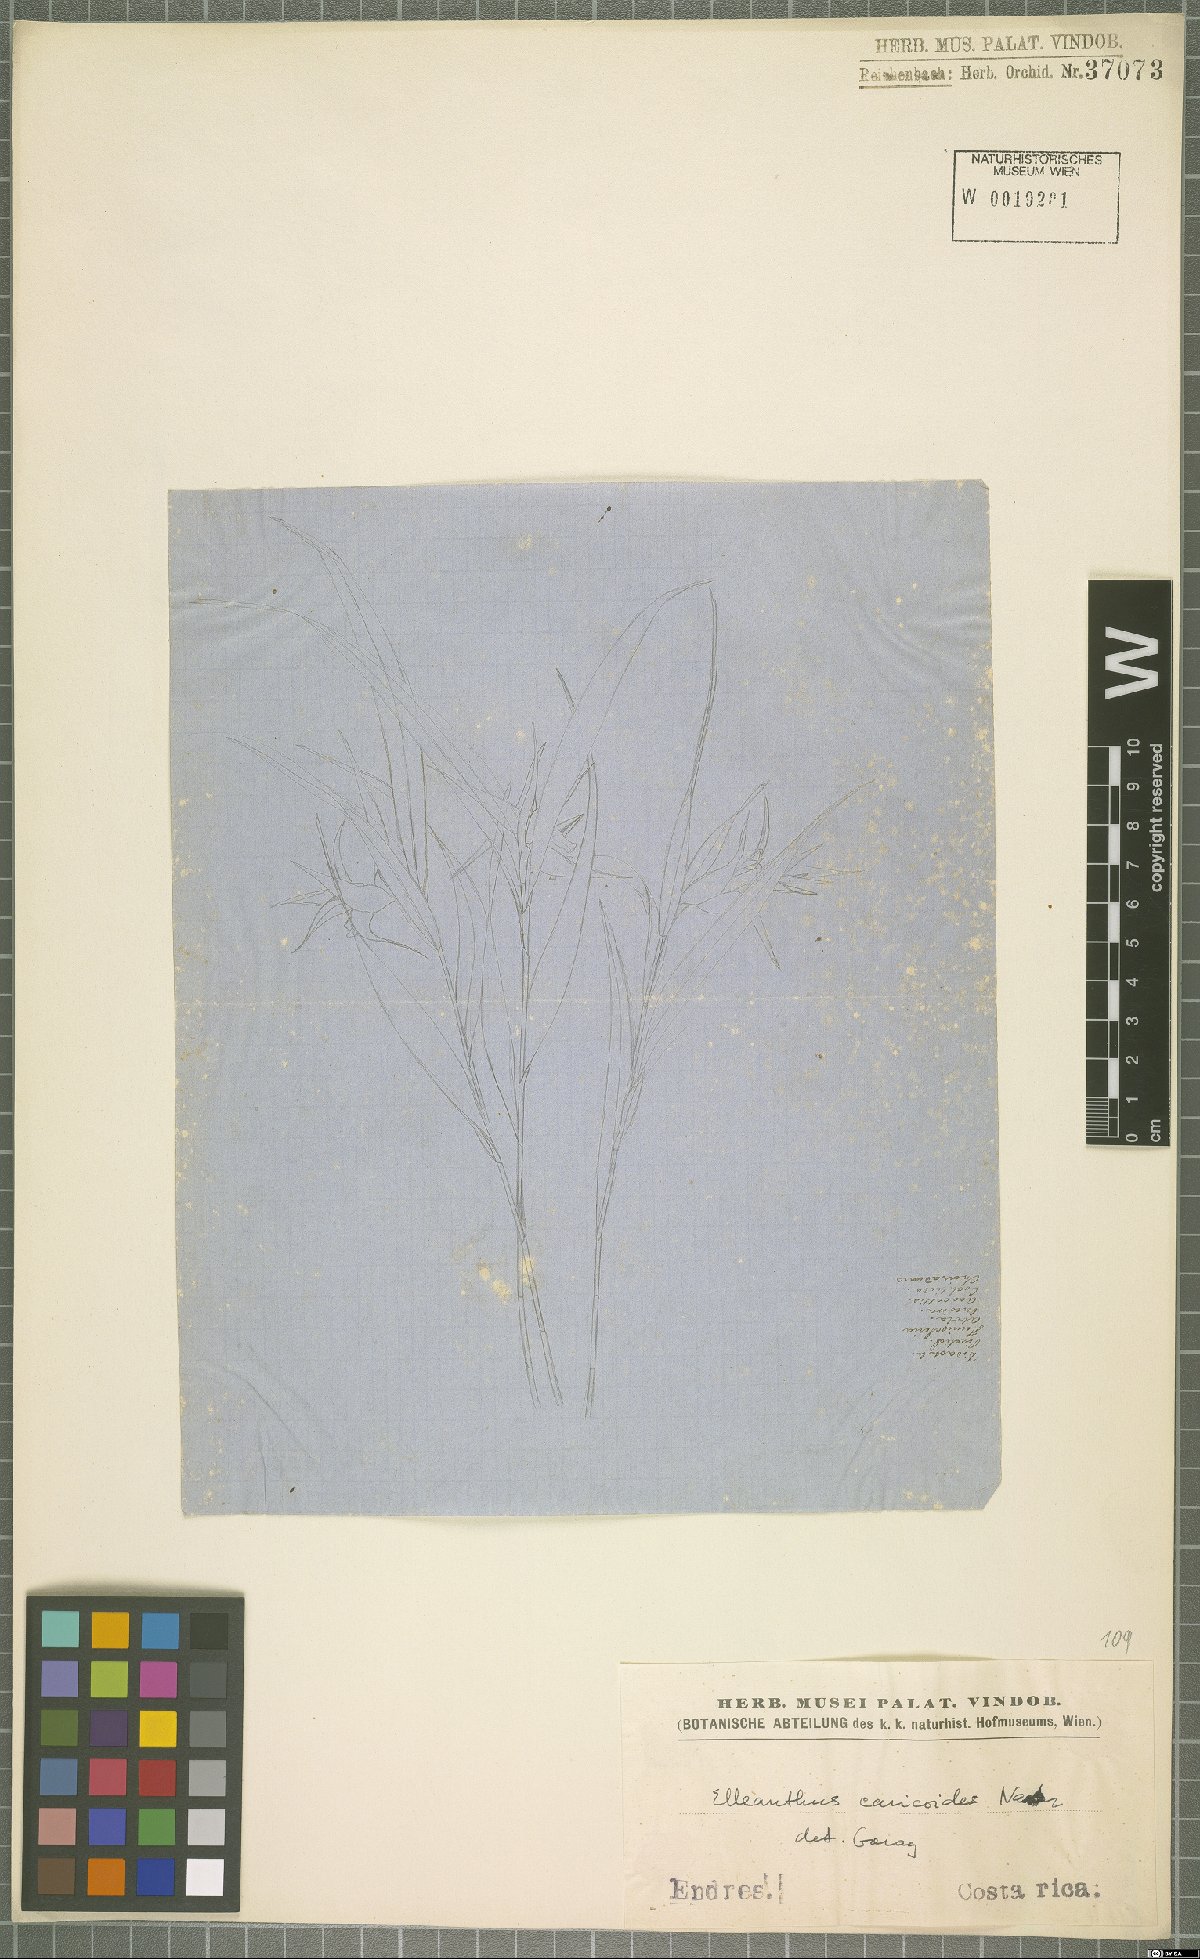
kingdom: Plantae
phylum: Tracheophyta
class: Liliopsida
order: Asparagales
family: Orchidaceae
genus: Elleanthus
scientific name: Elleanthus caricoides
